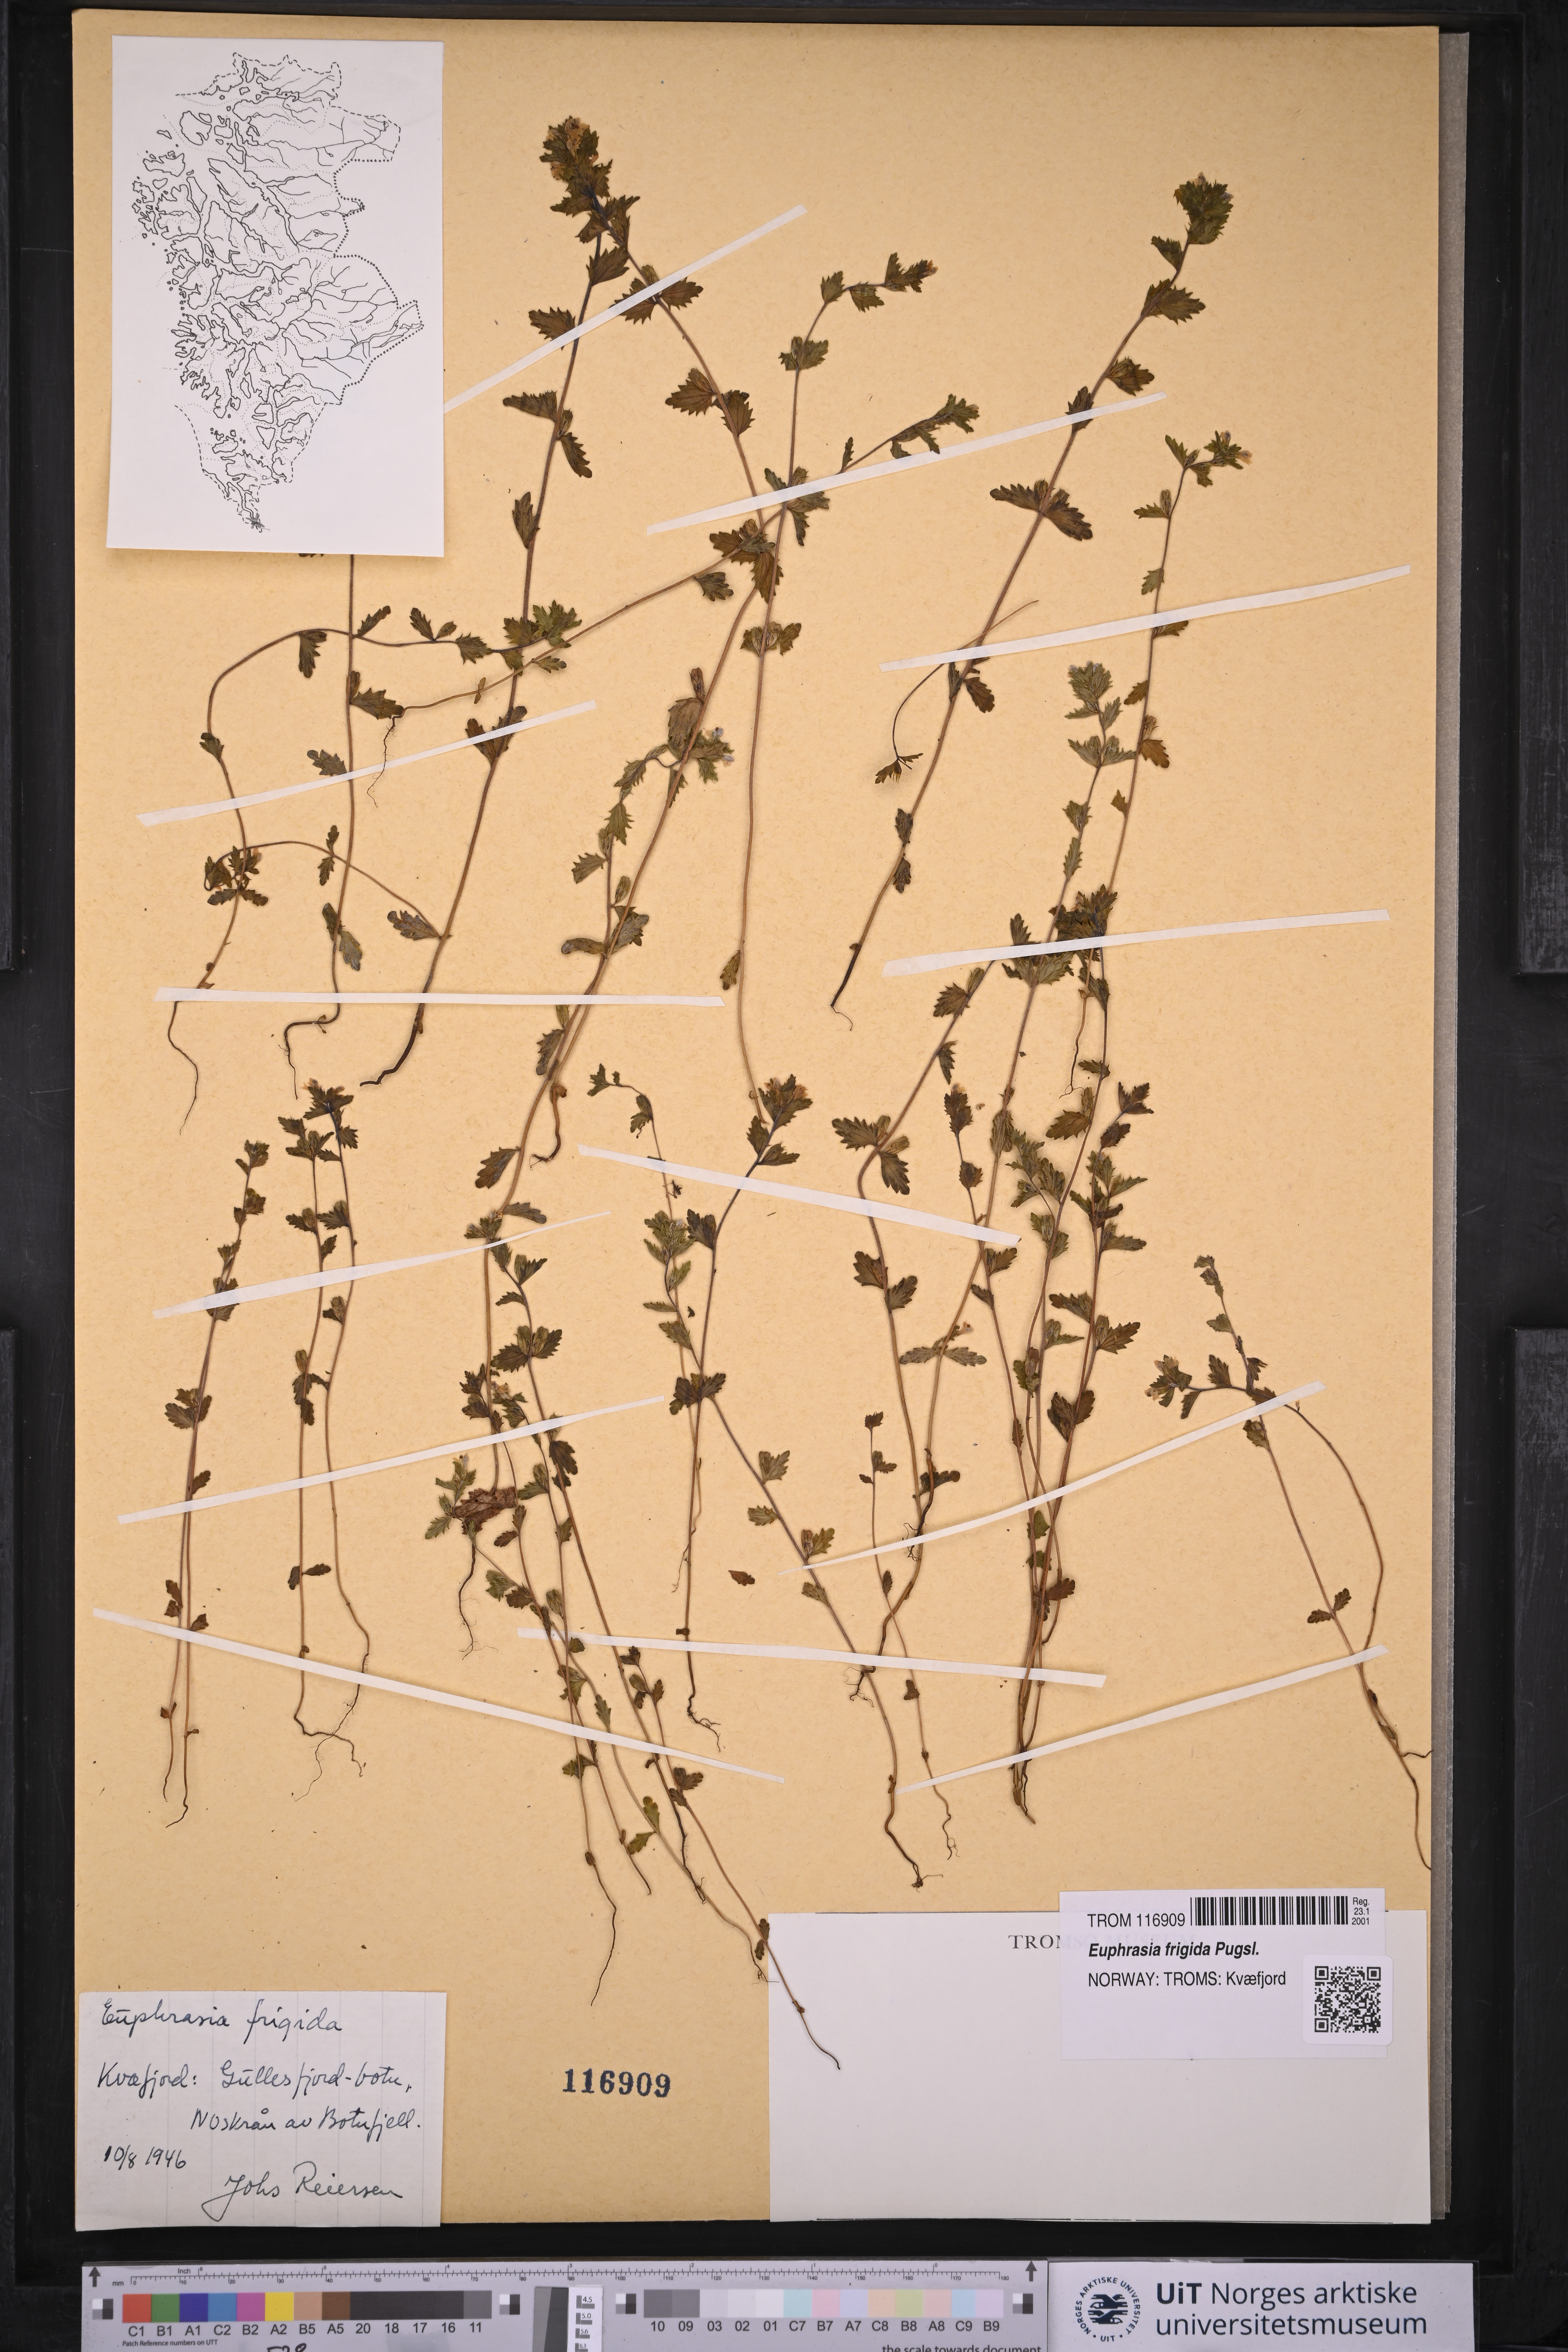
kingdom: Plantae
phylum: Tracheophyta
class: Magnoliopsida
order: Lamiales
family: Orobanchaceae
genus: Euphrasia
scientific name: Euphrasia frigida
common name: An eyebright
